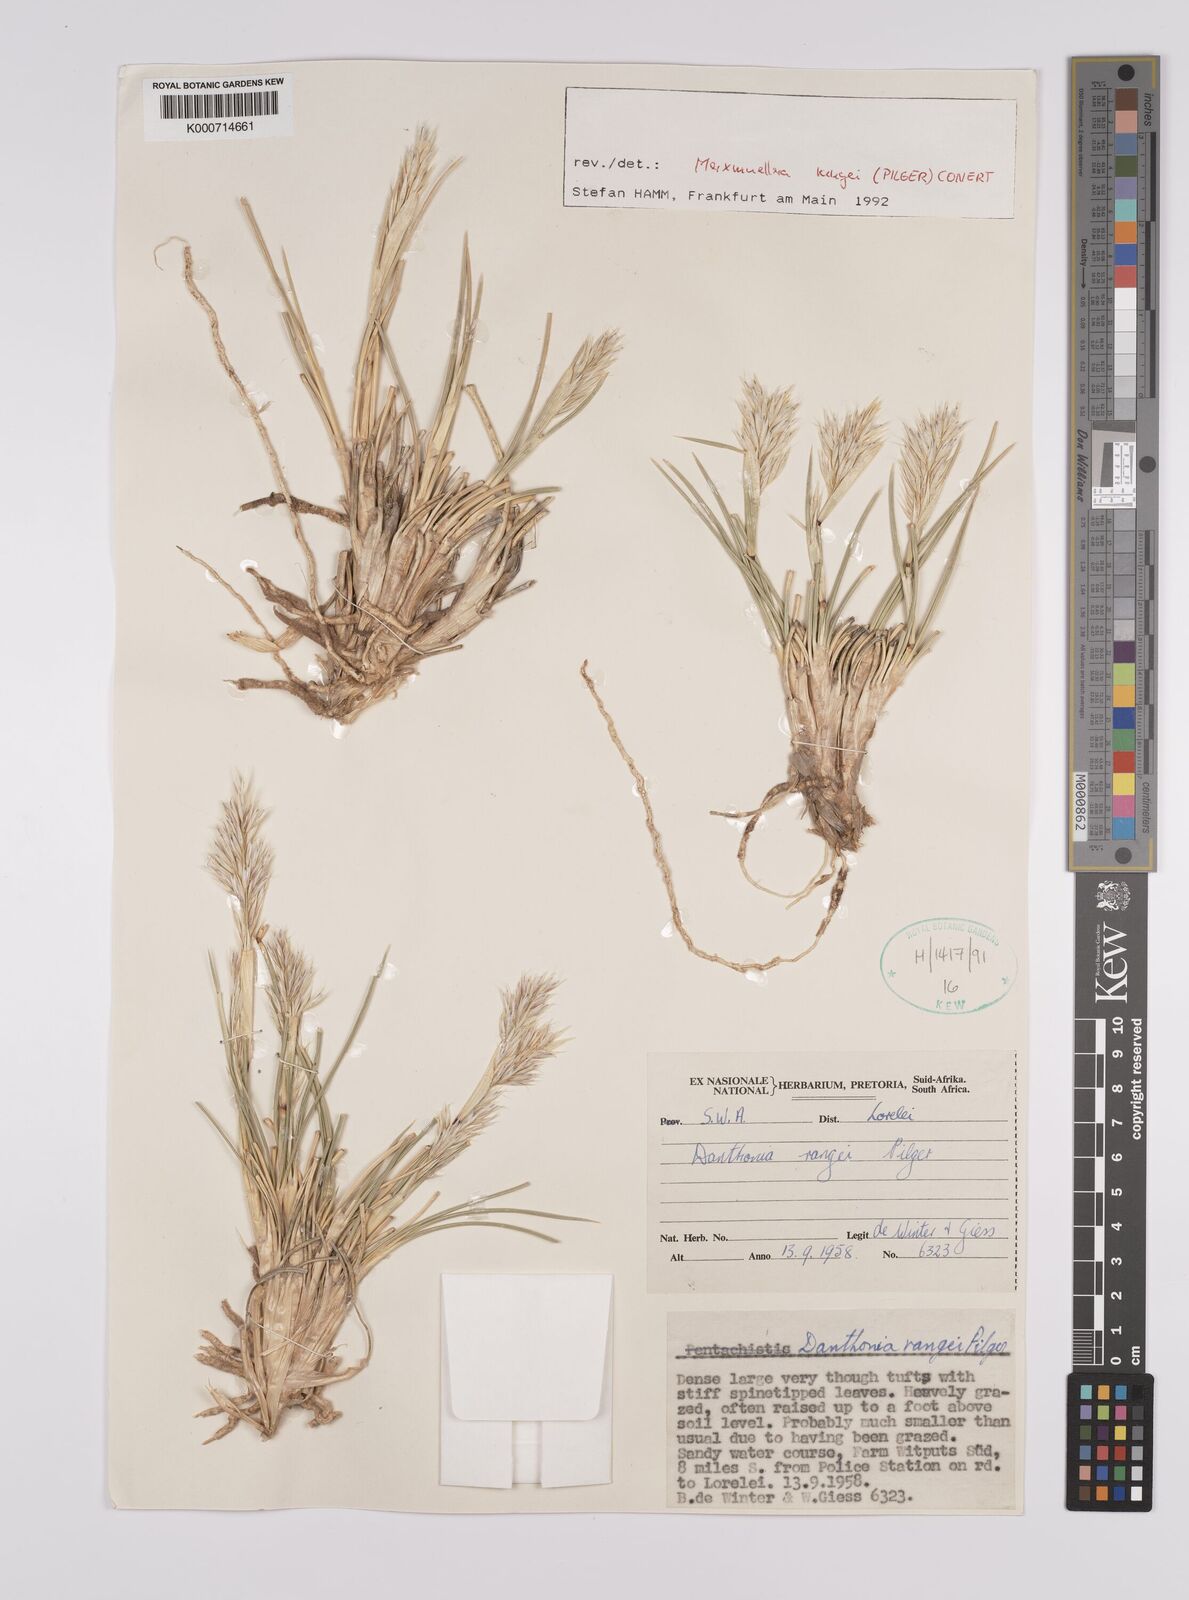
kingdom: Plantae
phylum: Tracheophyta
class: Liliopsida
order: Poales
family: Poaceae
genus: Rytidosperma
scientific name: Rytidosperma
